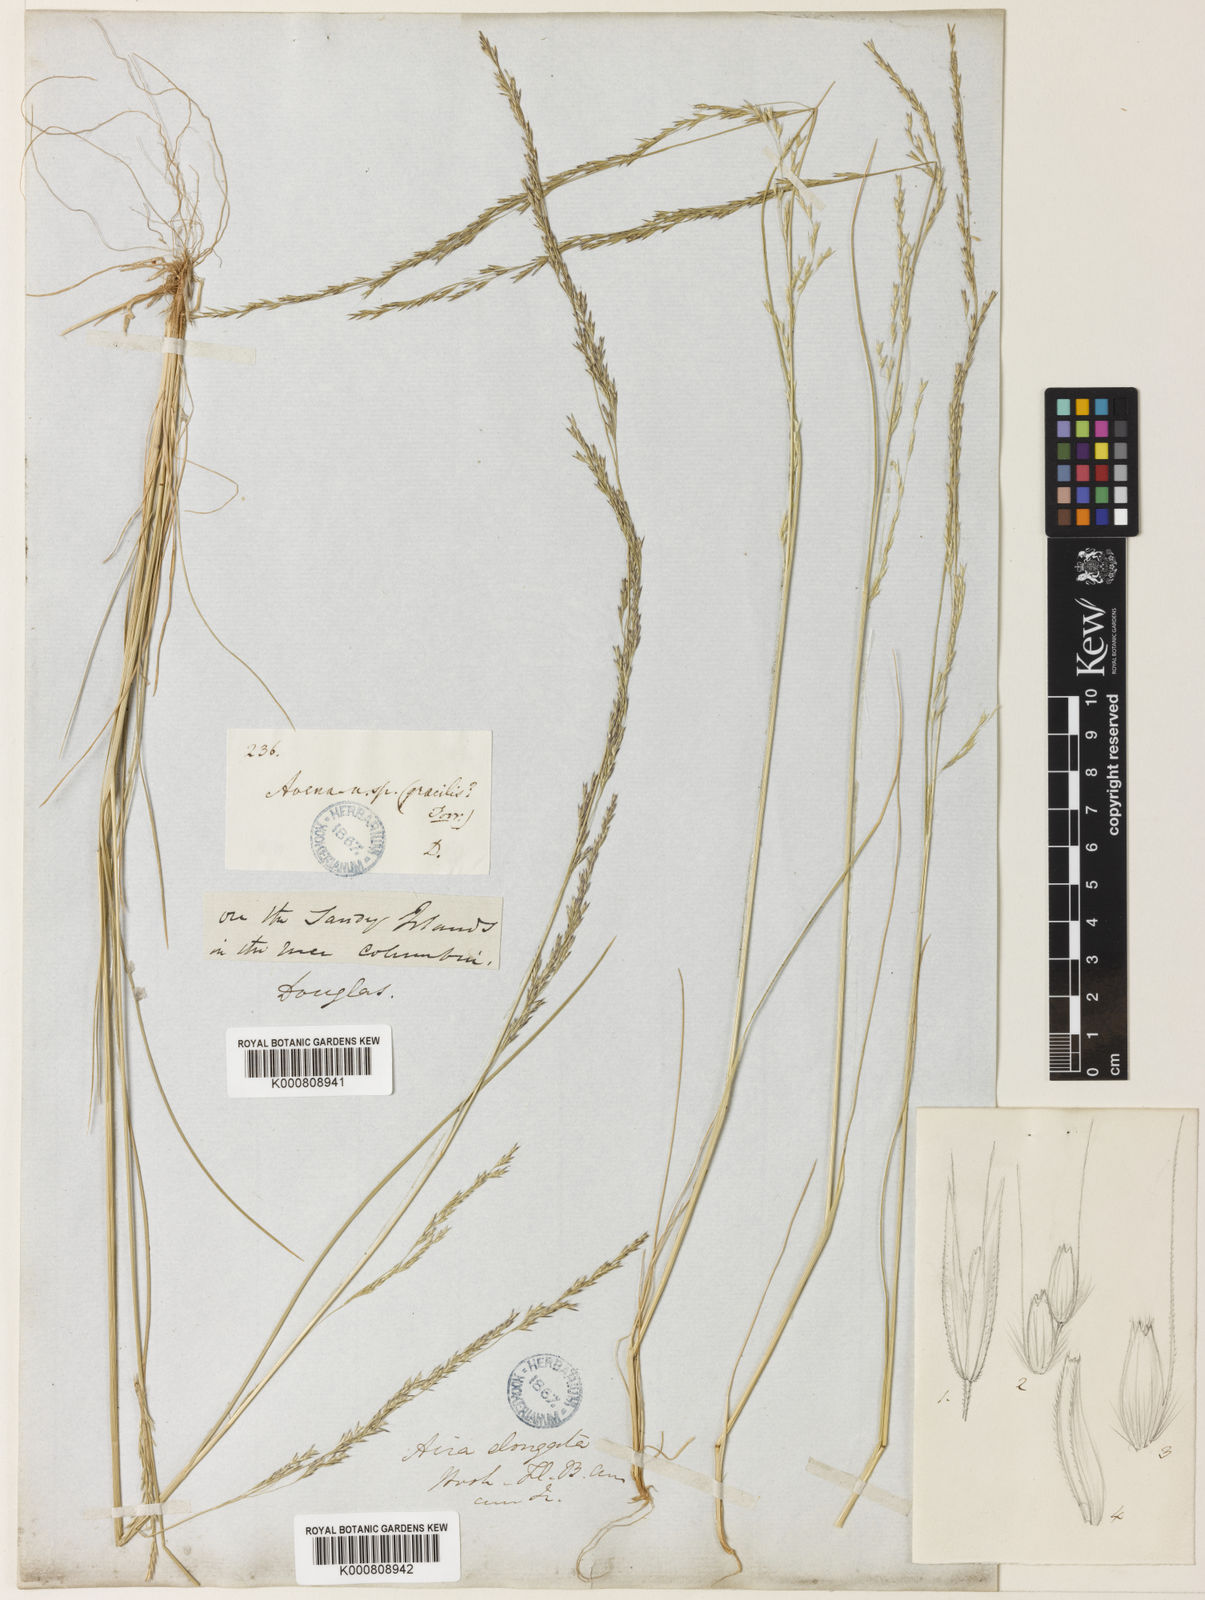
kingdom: Plantae
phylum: Tracheophyta
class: Liliopsida
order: Poales
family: Poaceae
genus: Deschampsia
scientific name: Deschampsia elongata
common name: Slender hairgrass
